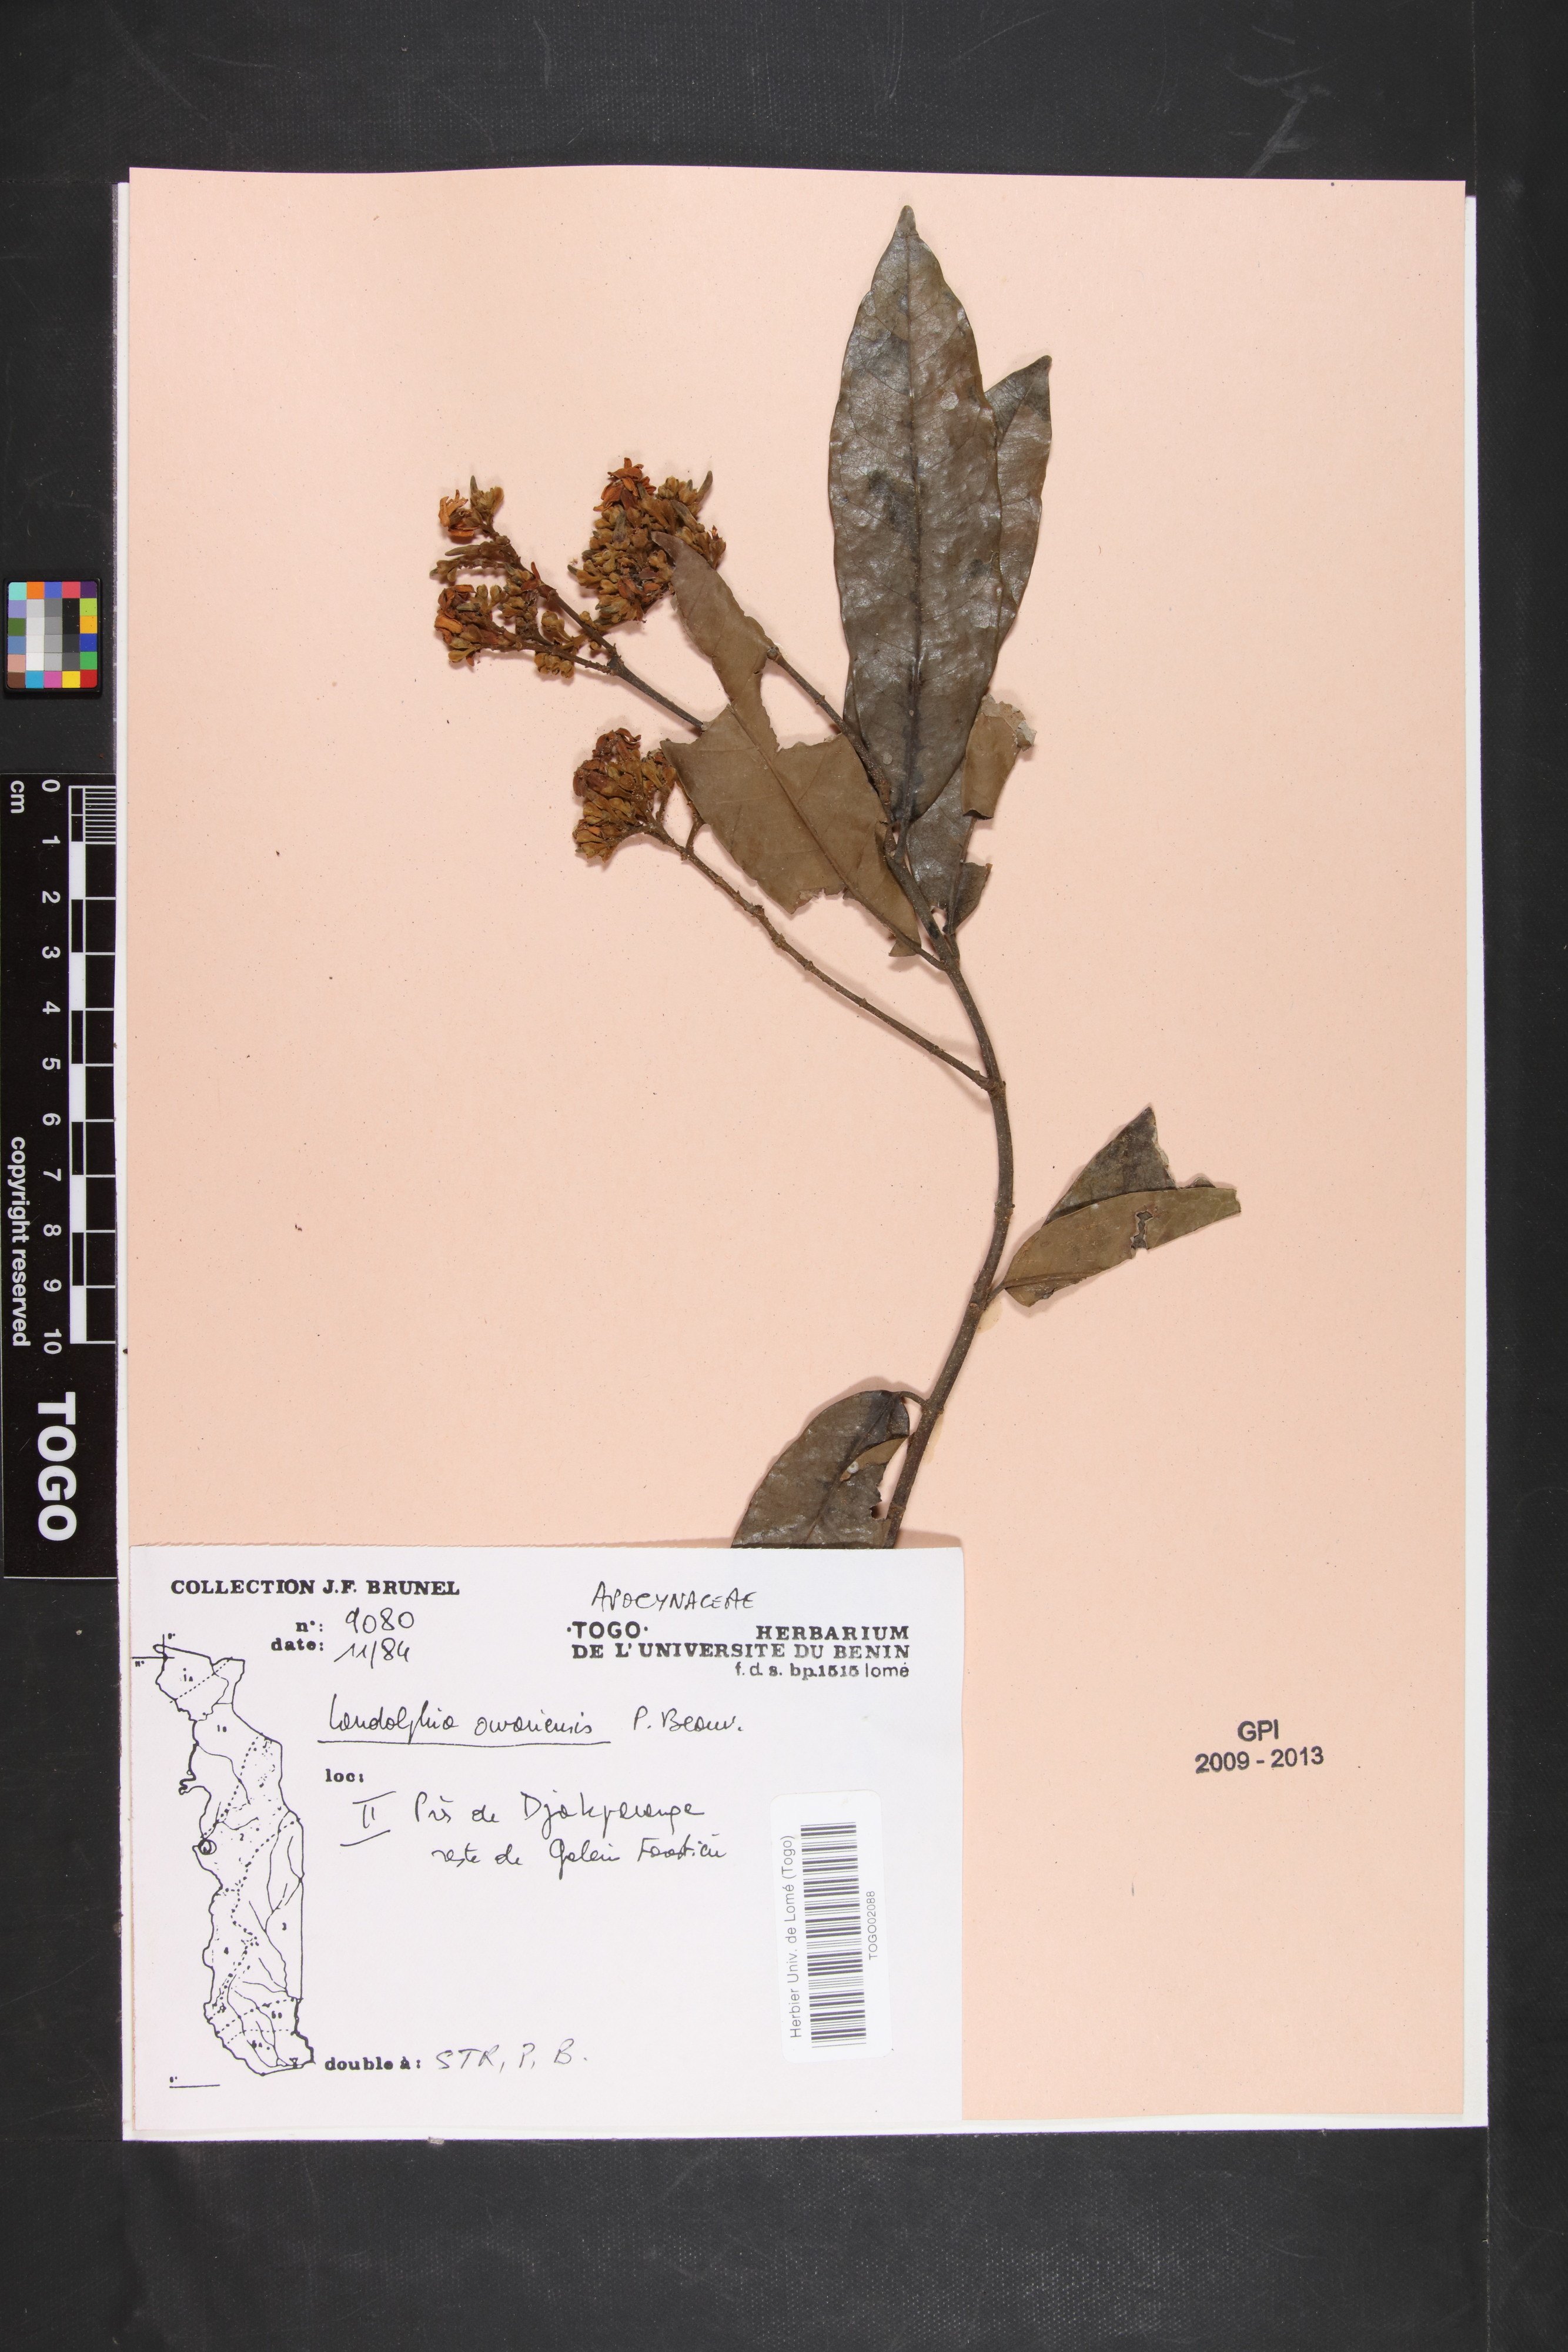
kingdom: Plantae
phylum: Tracheophyta
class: Magnoliopsida
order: Gentianales
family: Apocynaceae
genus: Landolphia
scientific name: Landolphia owariensis
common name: White-ball-rubber
